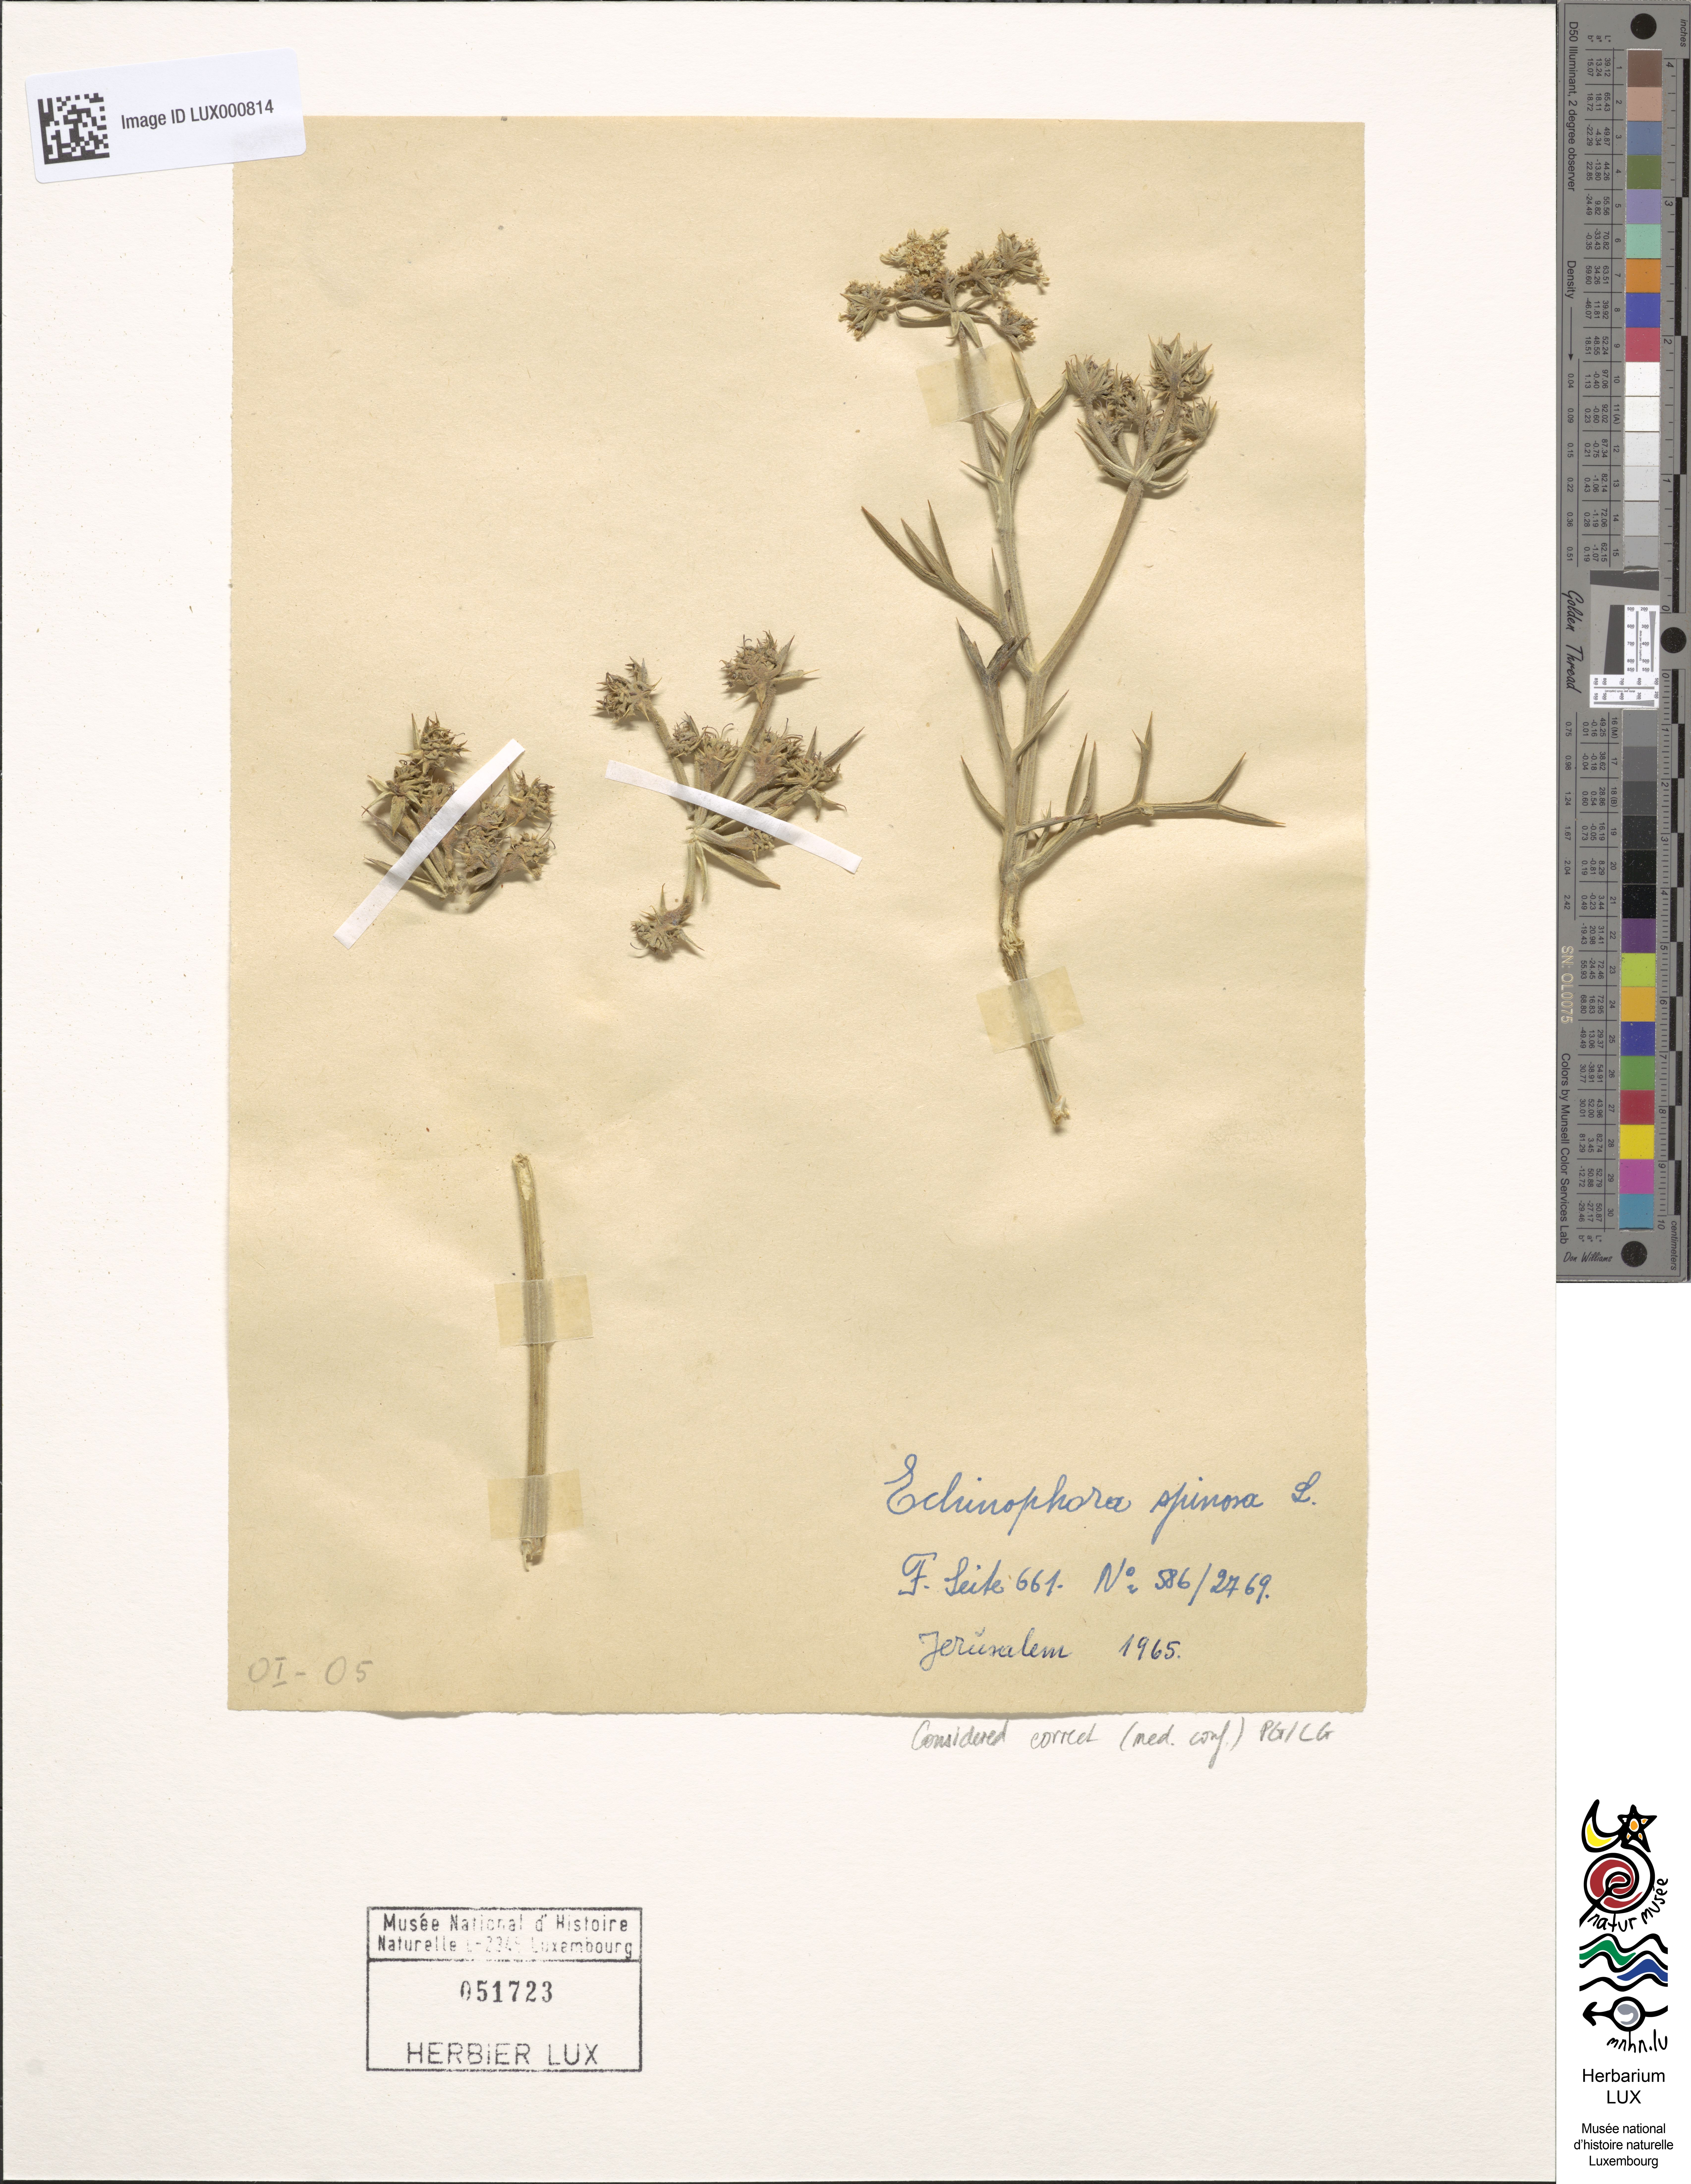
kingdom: Plantae
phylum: Tracheophyta
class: Magnoliopsida
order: Apiales
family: Apiaceae
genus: Echinophora
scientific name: Echinophora spinosa
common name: Prickly samphire
